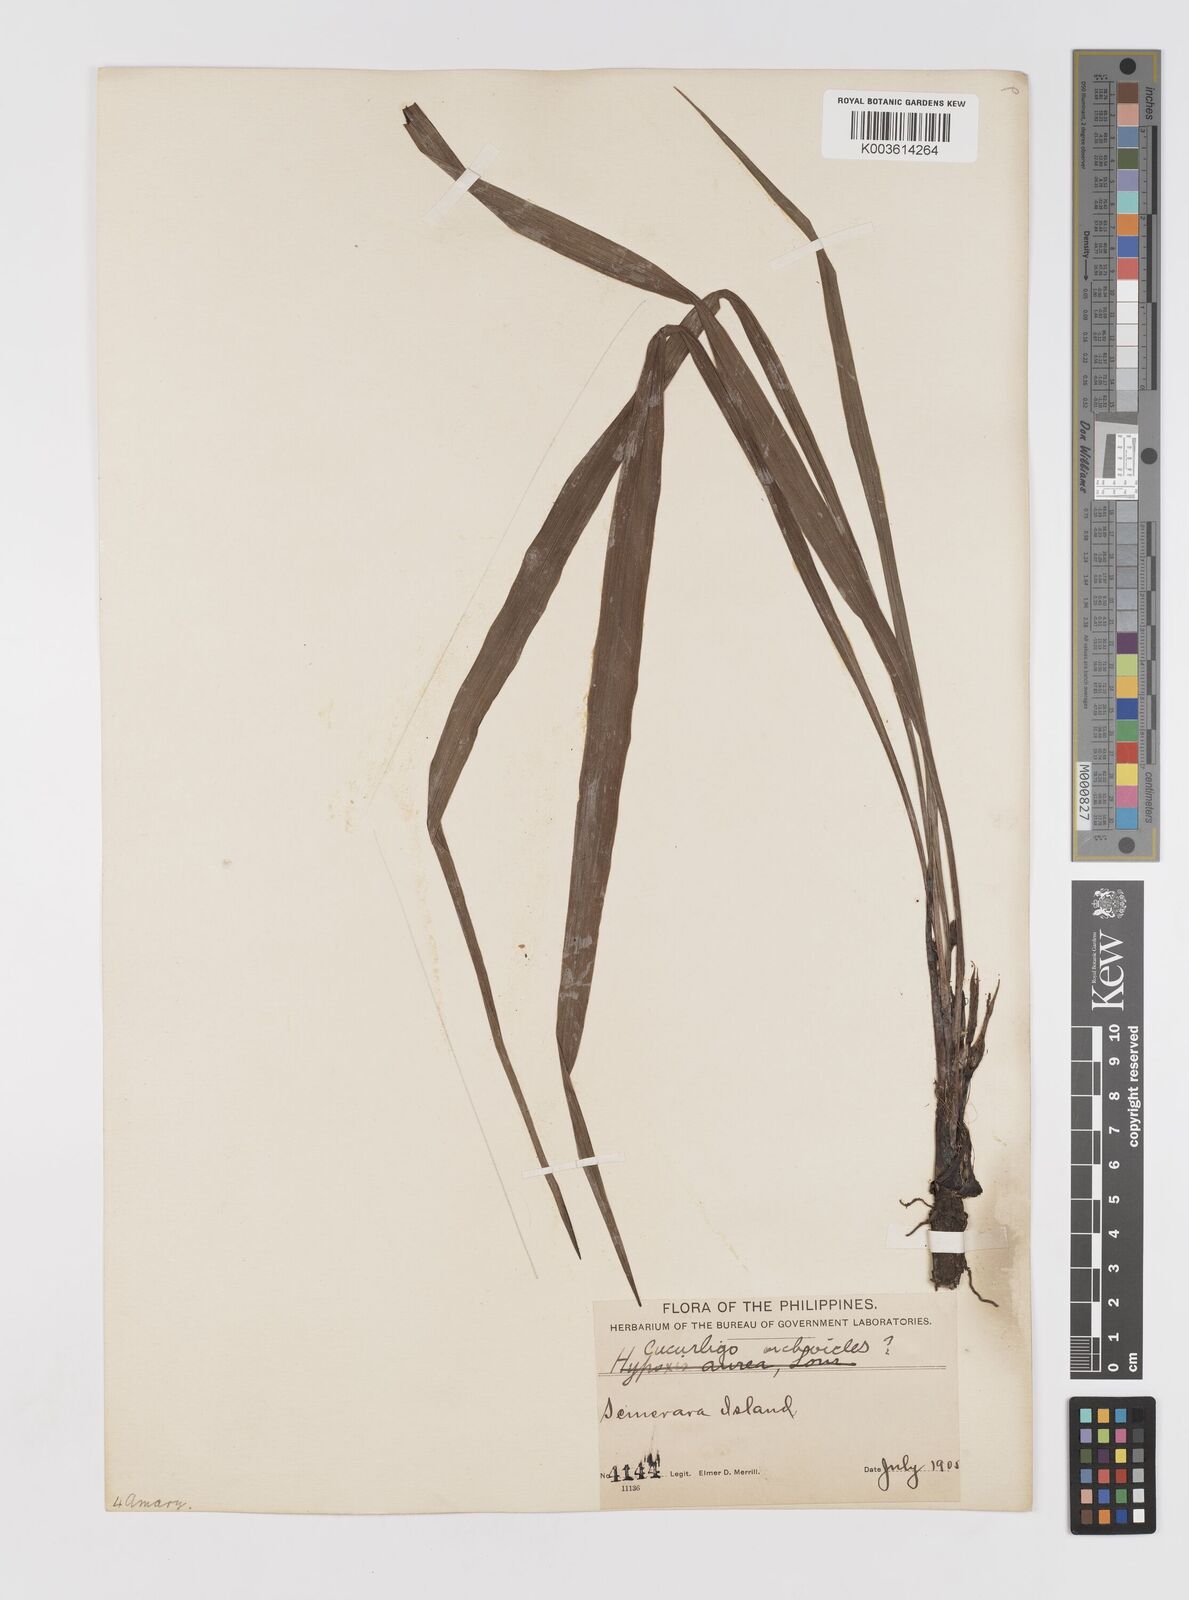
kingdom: Plantae
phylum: Tracheophyta
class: Liliopsida
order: Asparagales
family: Hypoxidaceae
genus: Curculigo
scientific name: Curculigo orchioides
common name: Golden eye-grass
